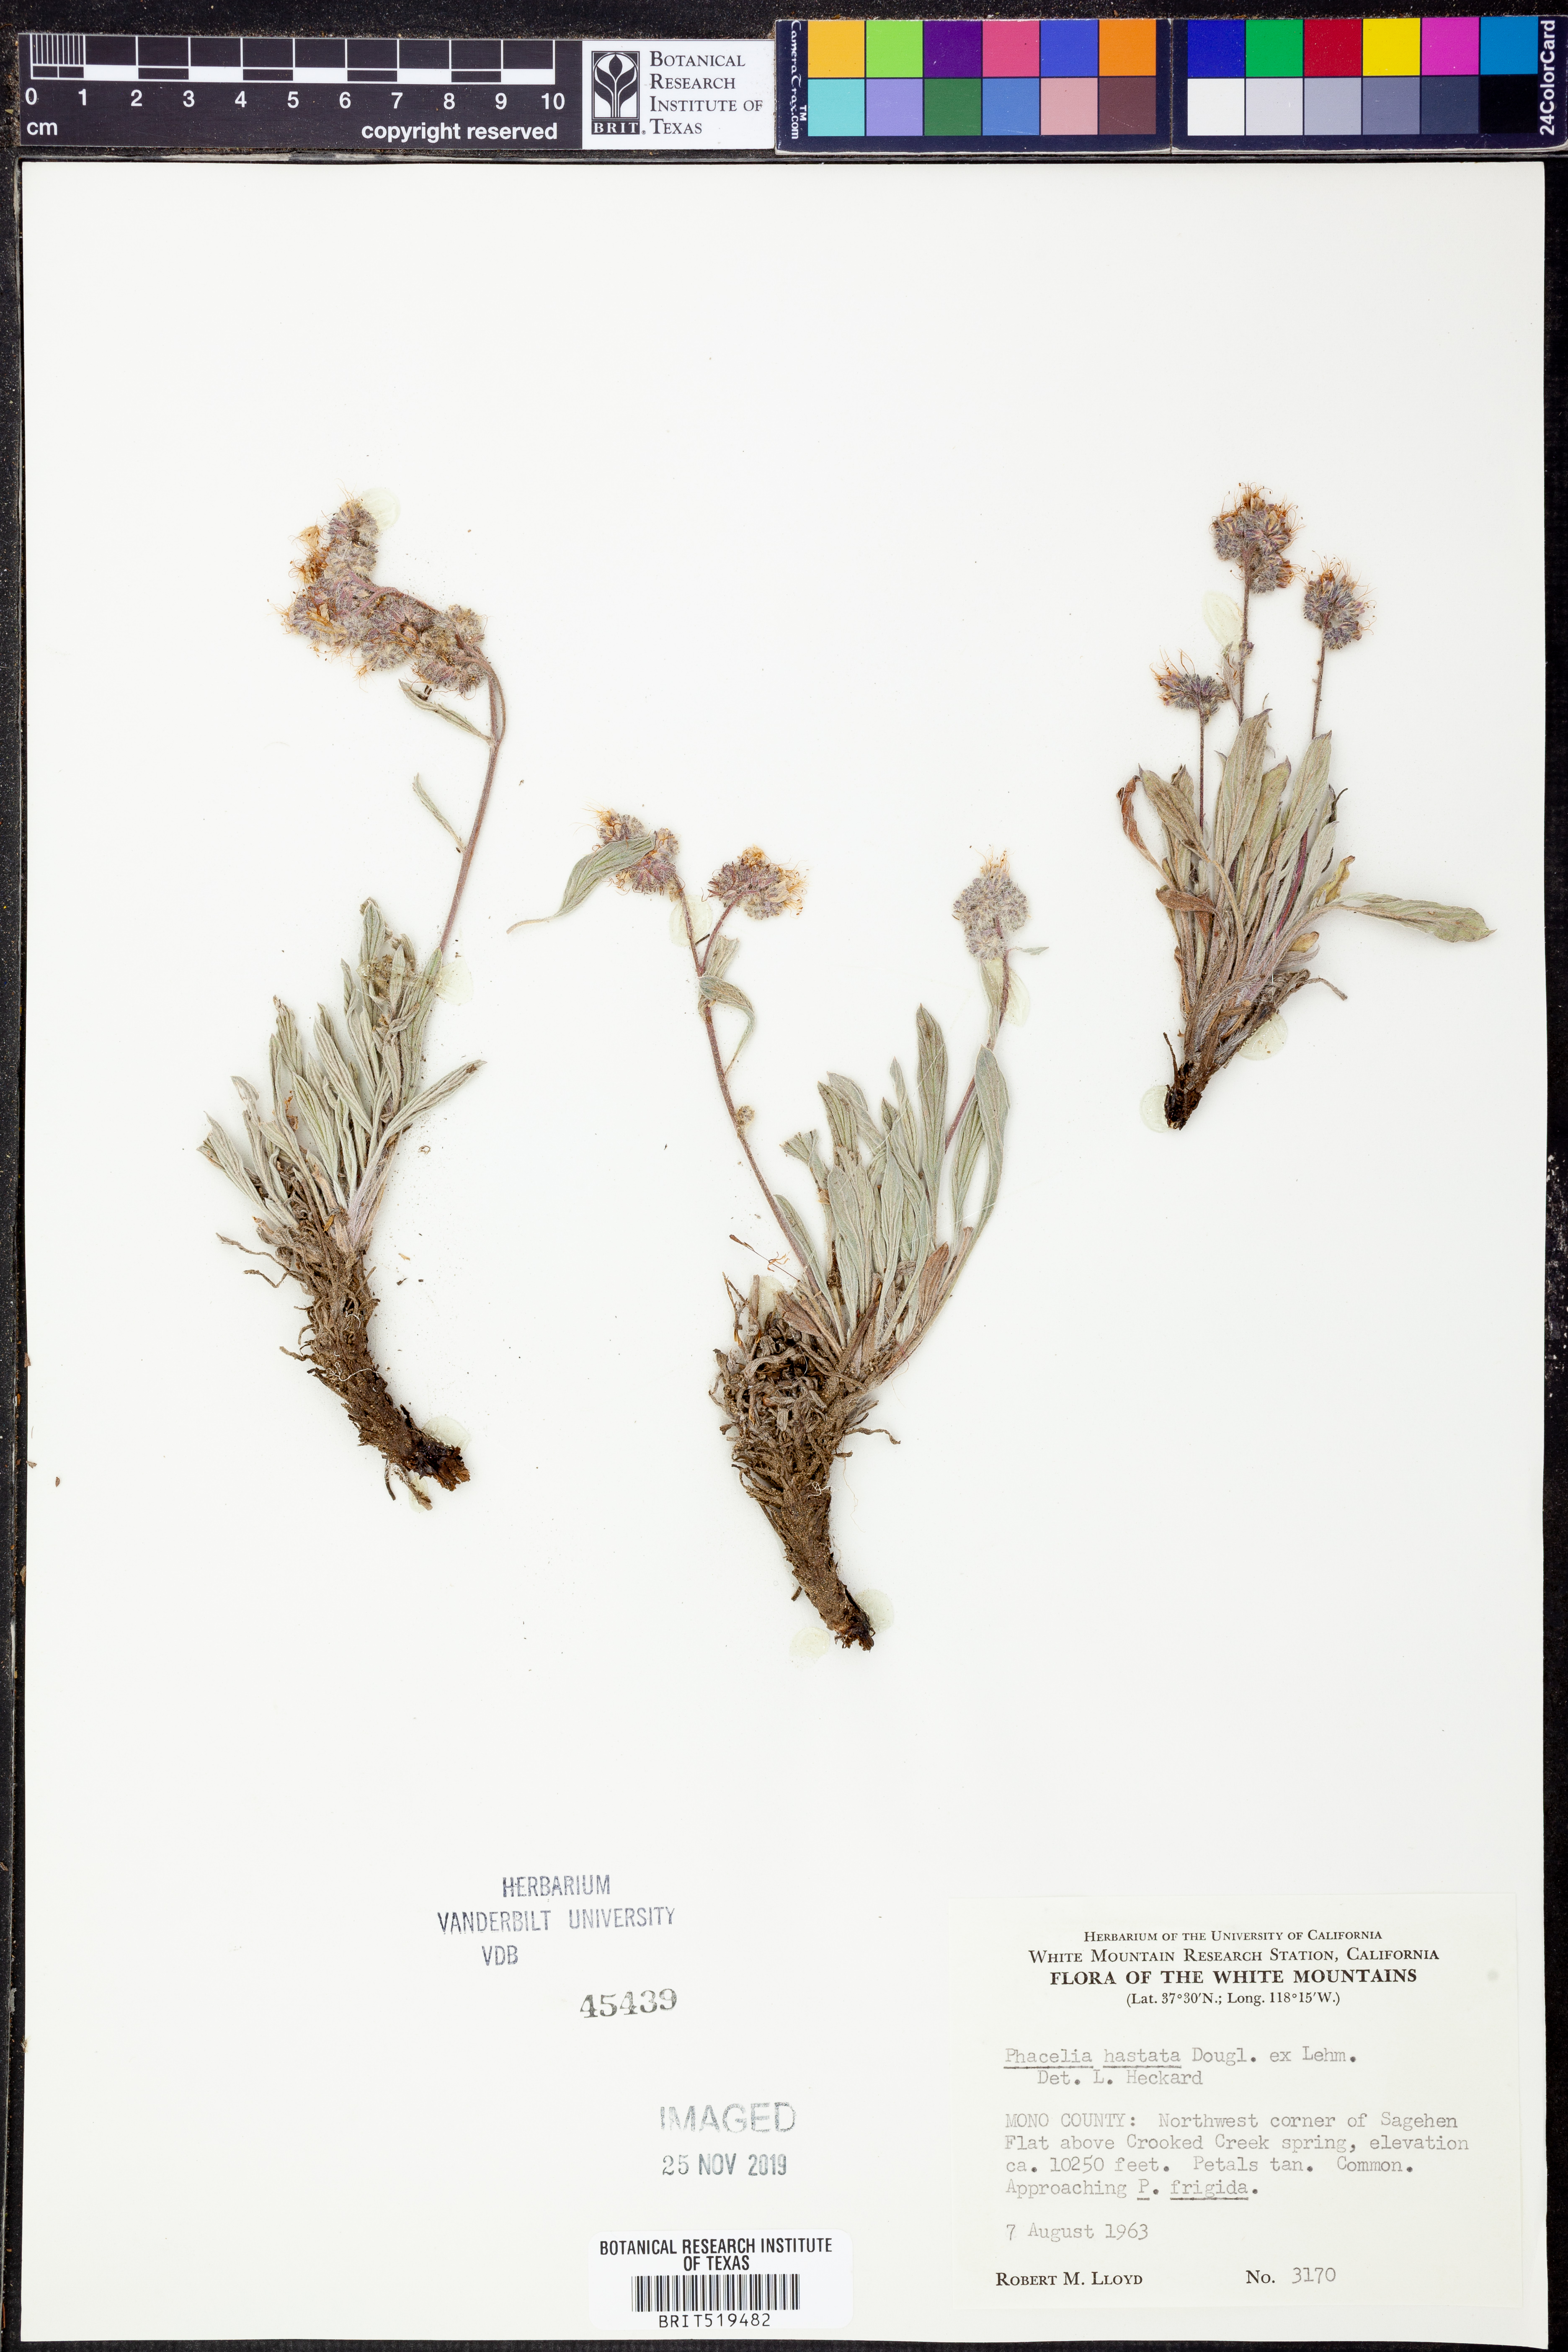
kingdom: Plantae
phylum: Tracheophyta
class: Magnoliopsida
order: Boraginales
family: Hydrophyllaceae
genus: Phacelia
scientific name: Phacelia hastata
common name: Silver-leaved phacelia
